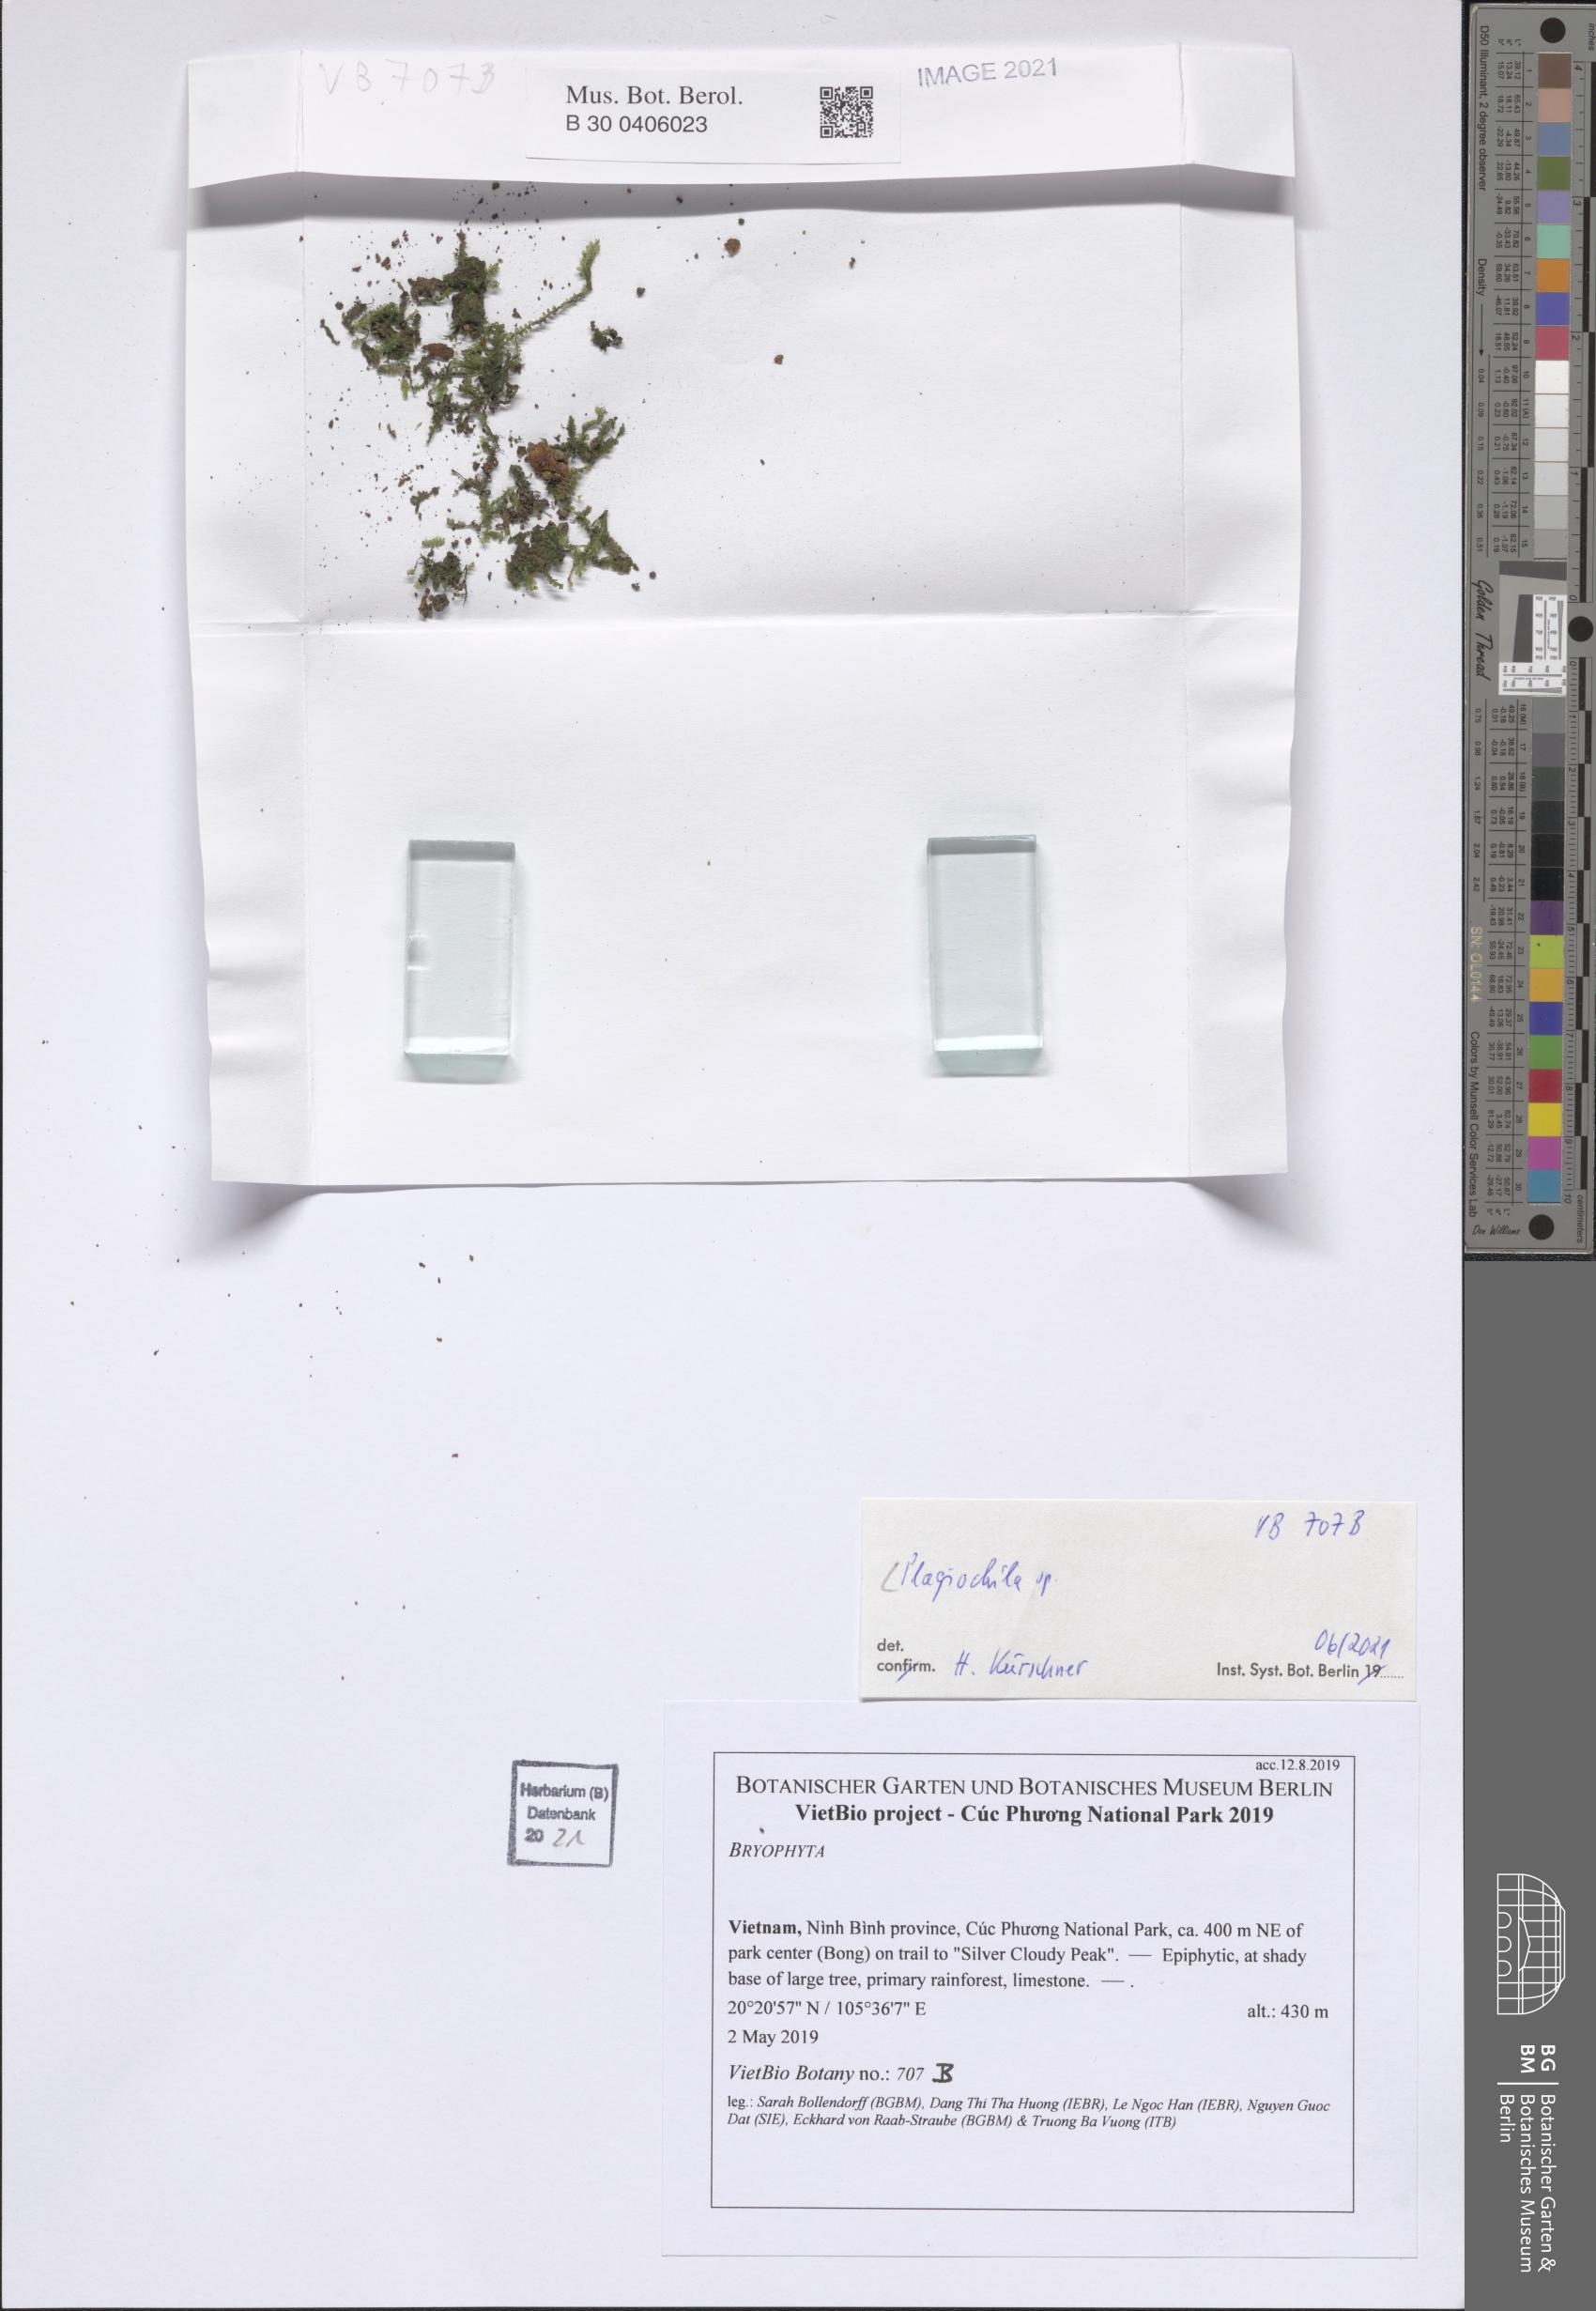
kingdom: Plantae
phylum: Marchantiophyta
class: Jungermanniopsida
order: Jungermanniales
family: Plagiochilaceae
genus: Plagiochila
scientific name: Plagiochila
